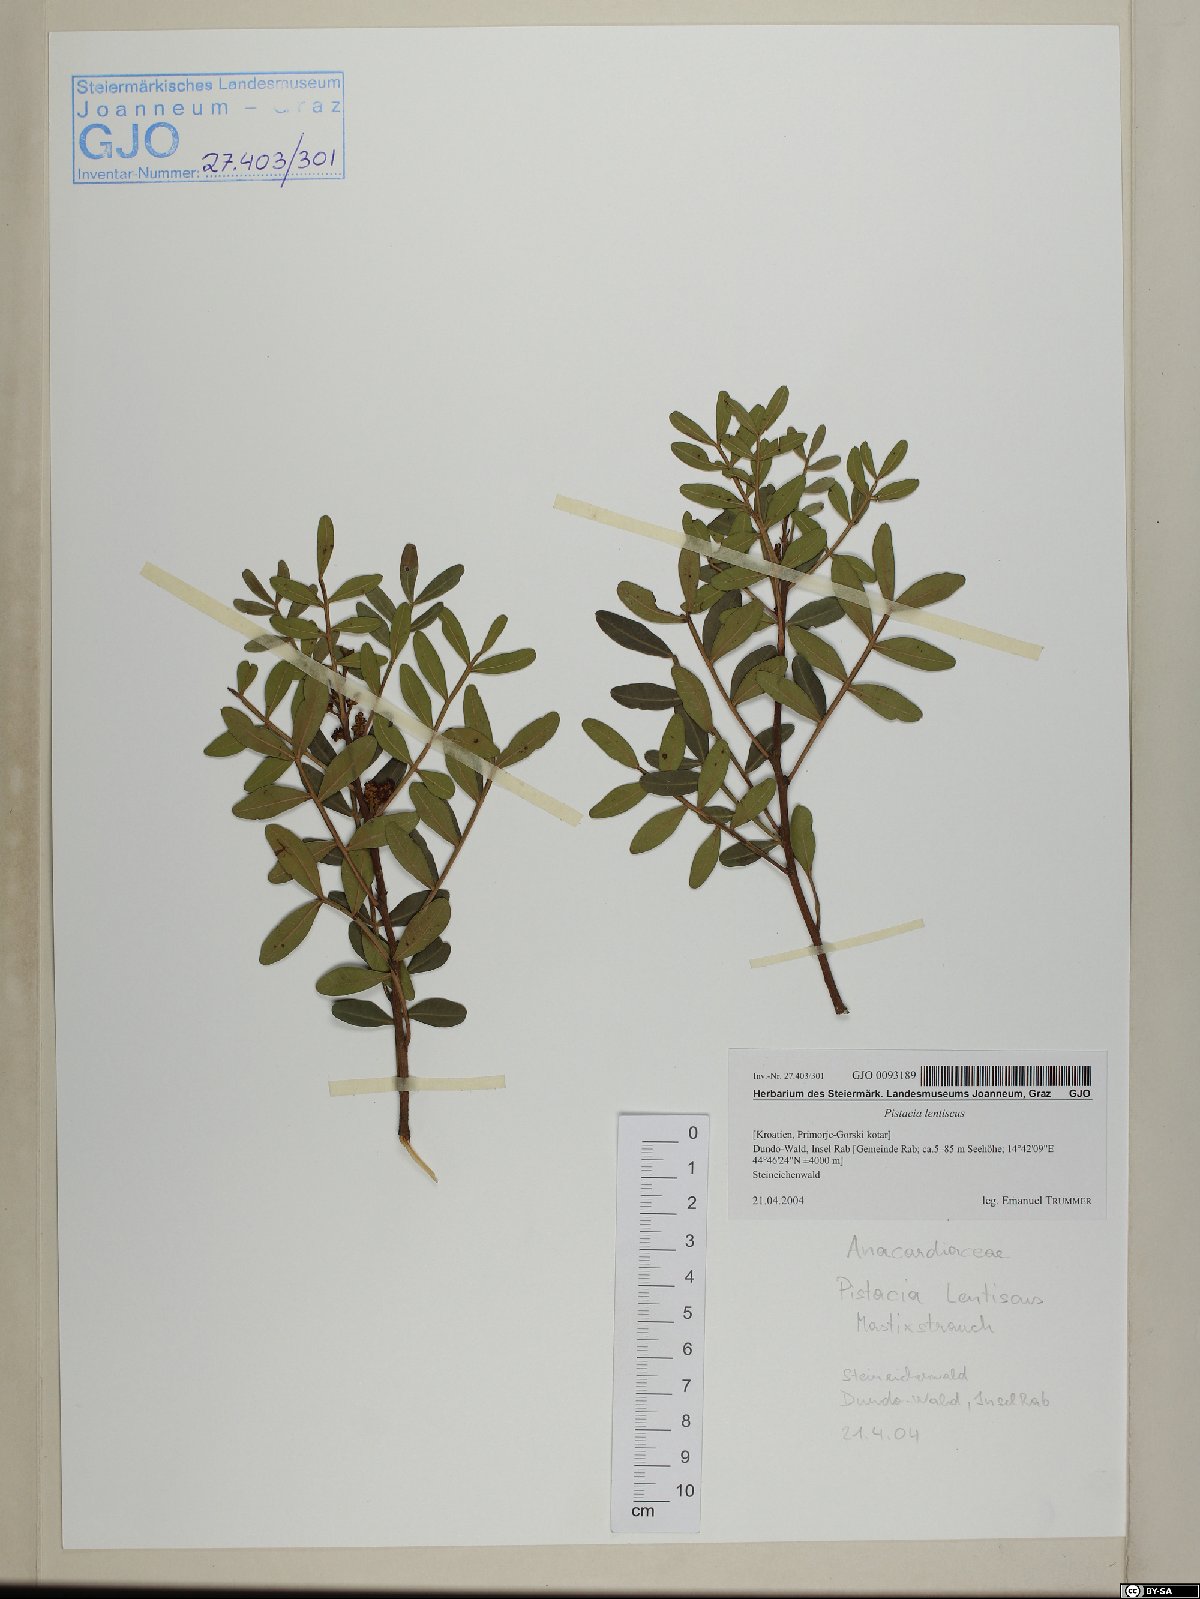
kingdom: Plantae
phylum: Tracheophyta
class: Magnoliopsida
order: Sapindales
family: Anacardiaceae
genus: Pistacia
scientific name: Pistacia lentiscus
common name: Lentisk
